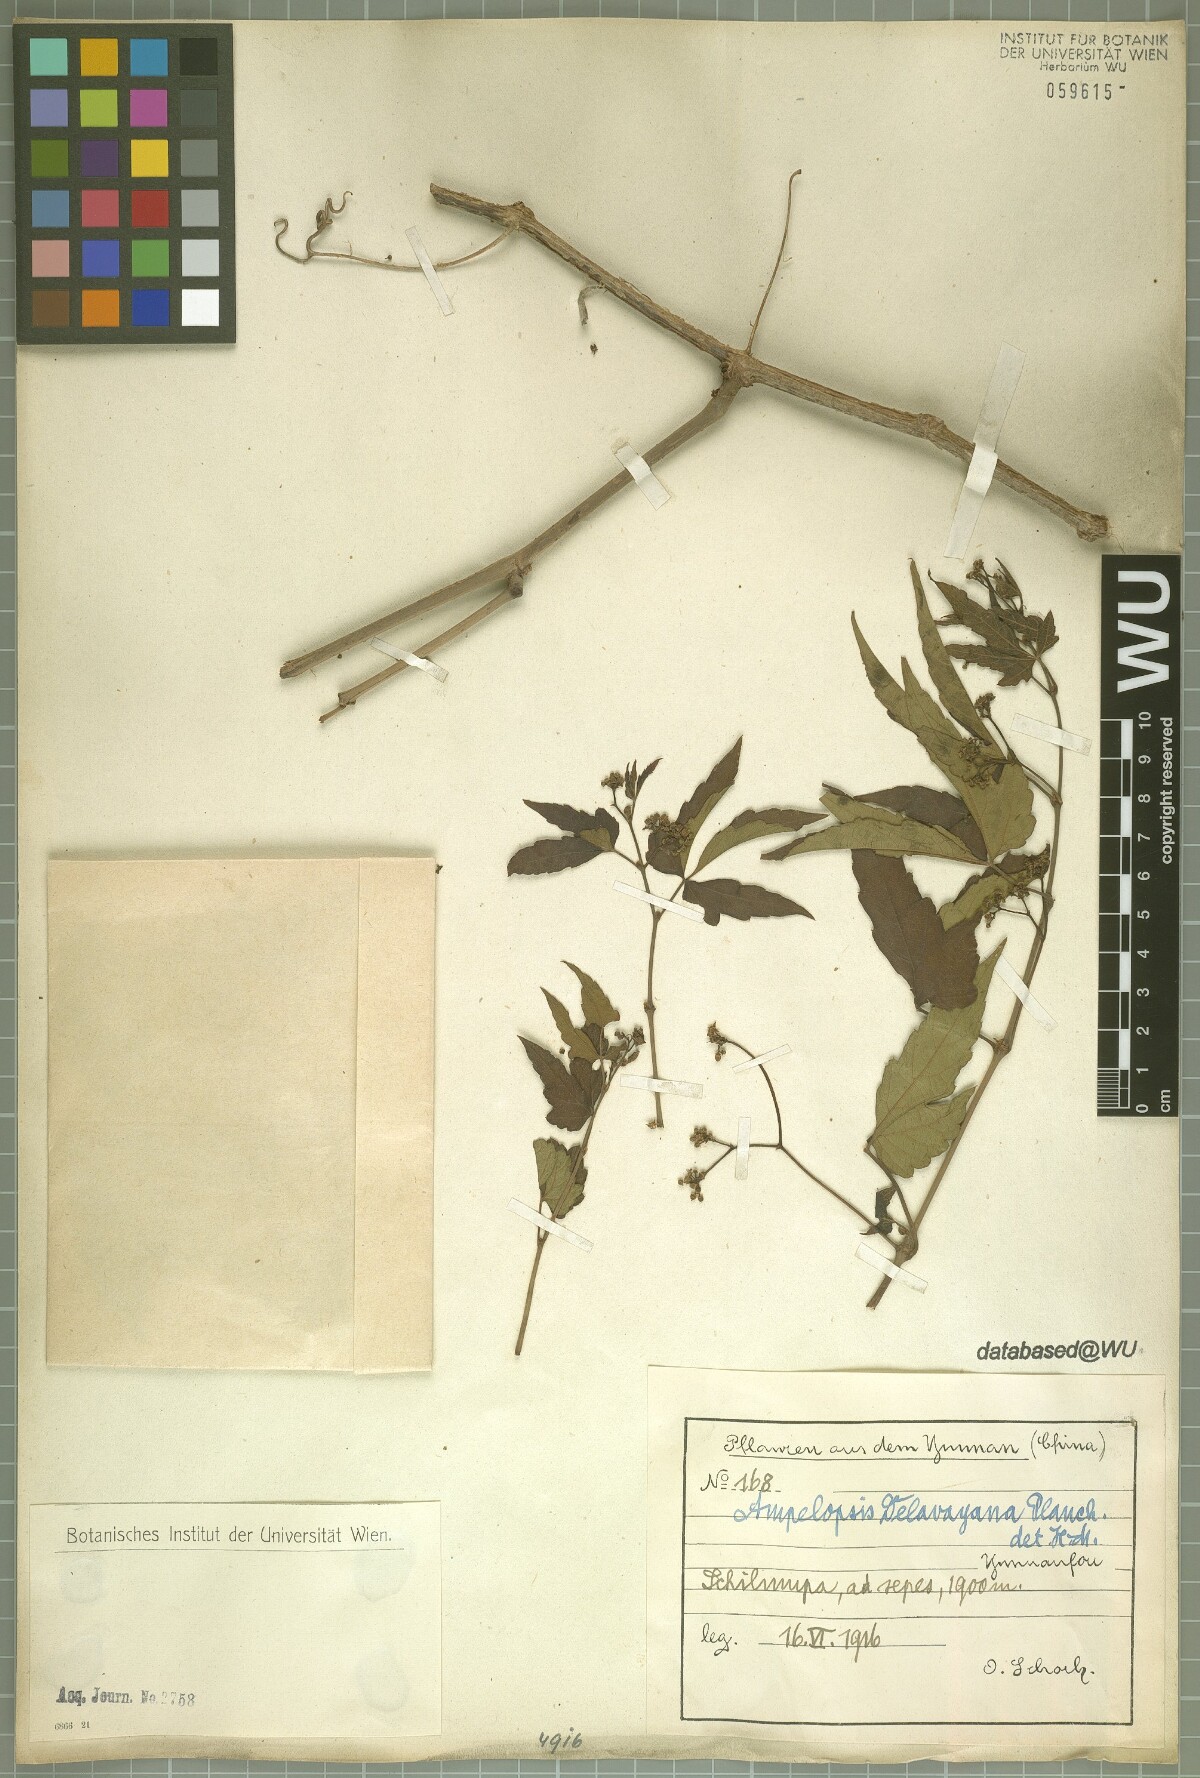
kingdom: Plantae
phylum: Tracheophyta
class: Magnoliopsida
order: Vitales
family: Vitaceae
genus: Ampelopsis
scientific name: Ampelopsis delavayana
